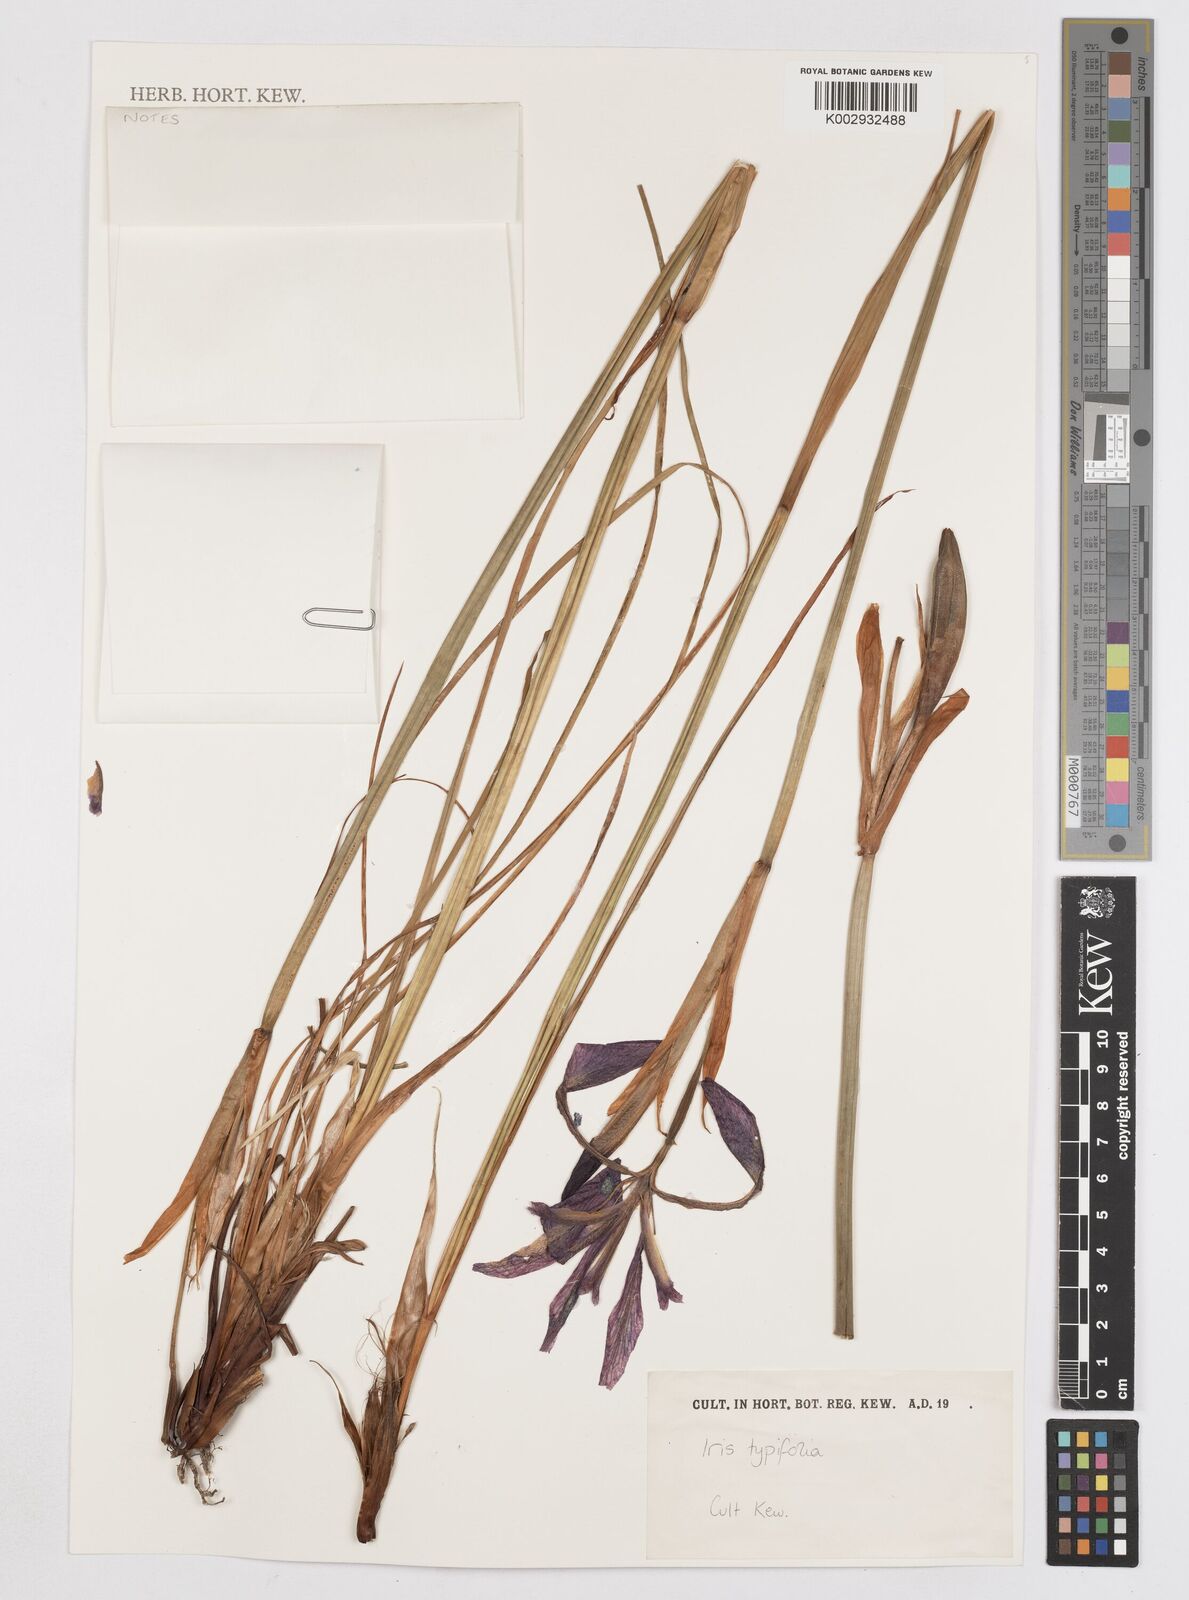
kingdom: Plantae
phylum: Tracheophyta
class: Liliopsida
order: Asparagales
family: Iridaceae
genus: Iris
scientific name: Iris typhifolia
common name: North tombs iris
